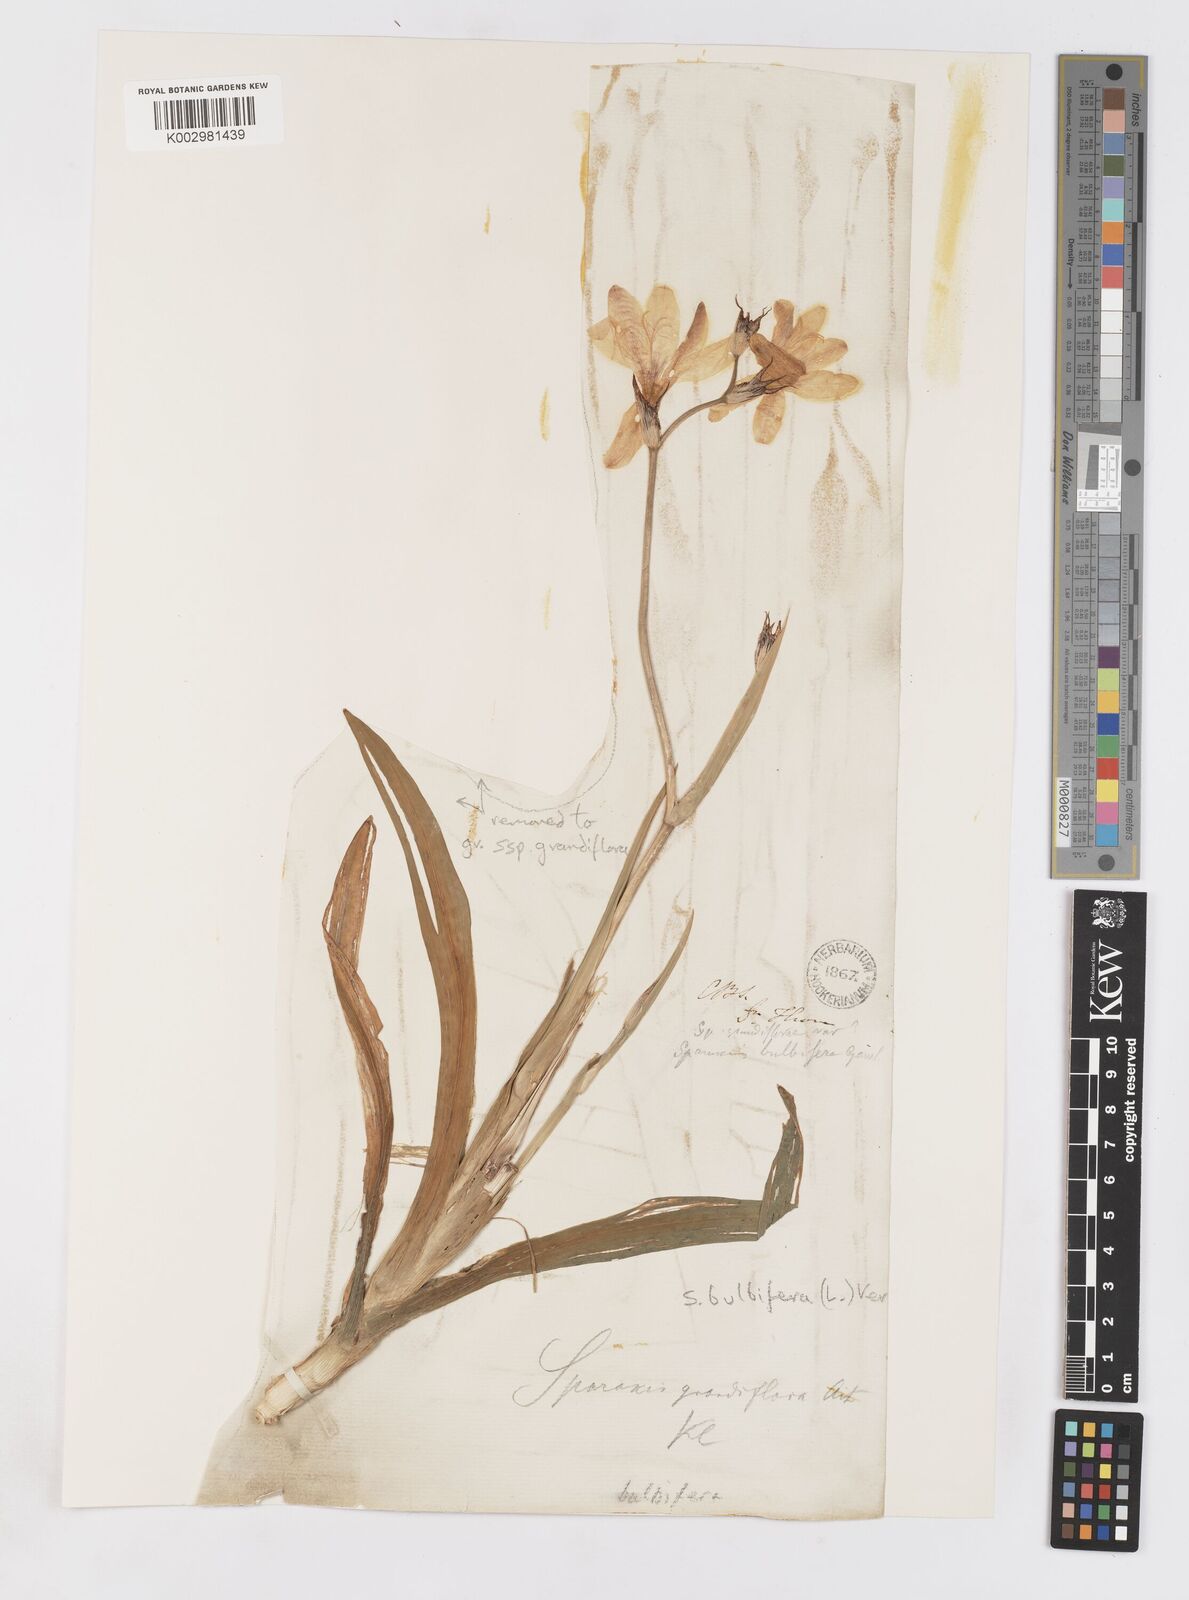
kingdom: Plantae
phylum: Tracheophyta
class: Liliopsida
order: Asparagales
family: Iridaceae
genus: Sparaxis
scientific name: Sparaxis bulbifera
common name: Harlequin-flower
